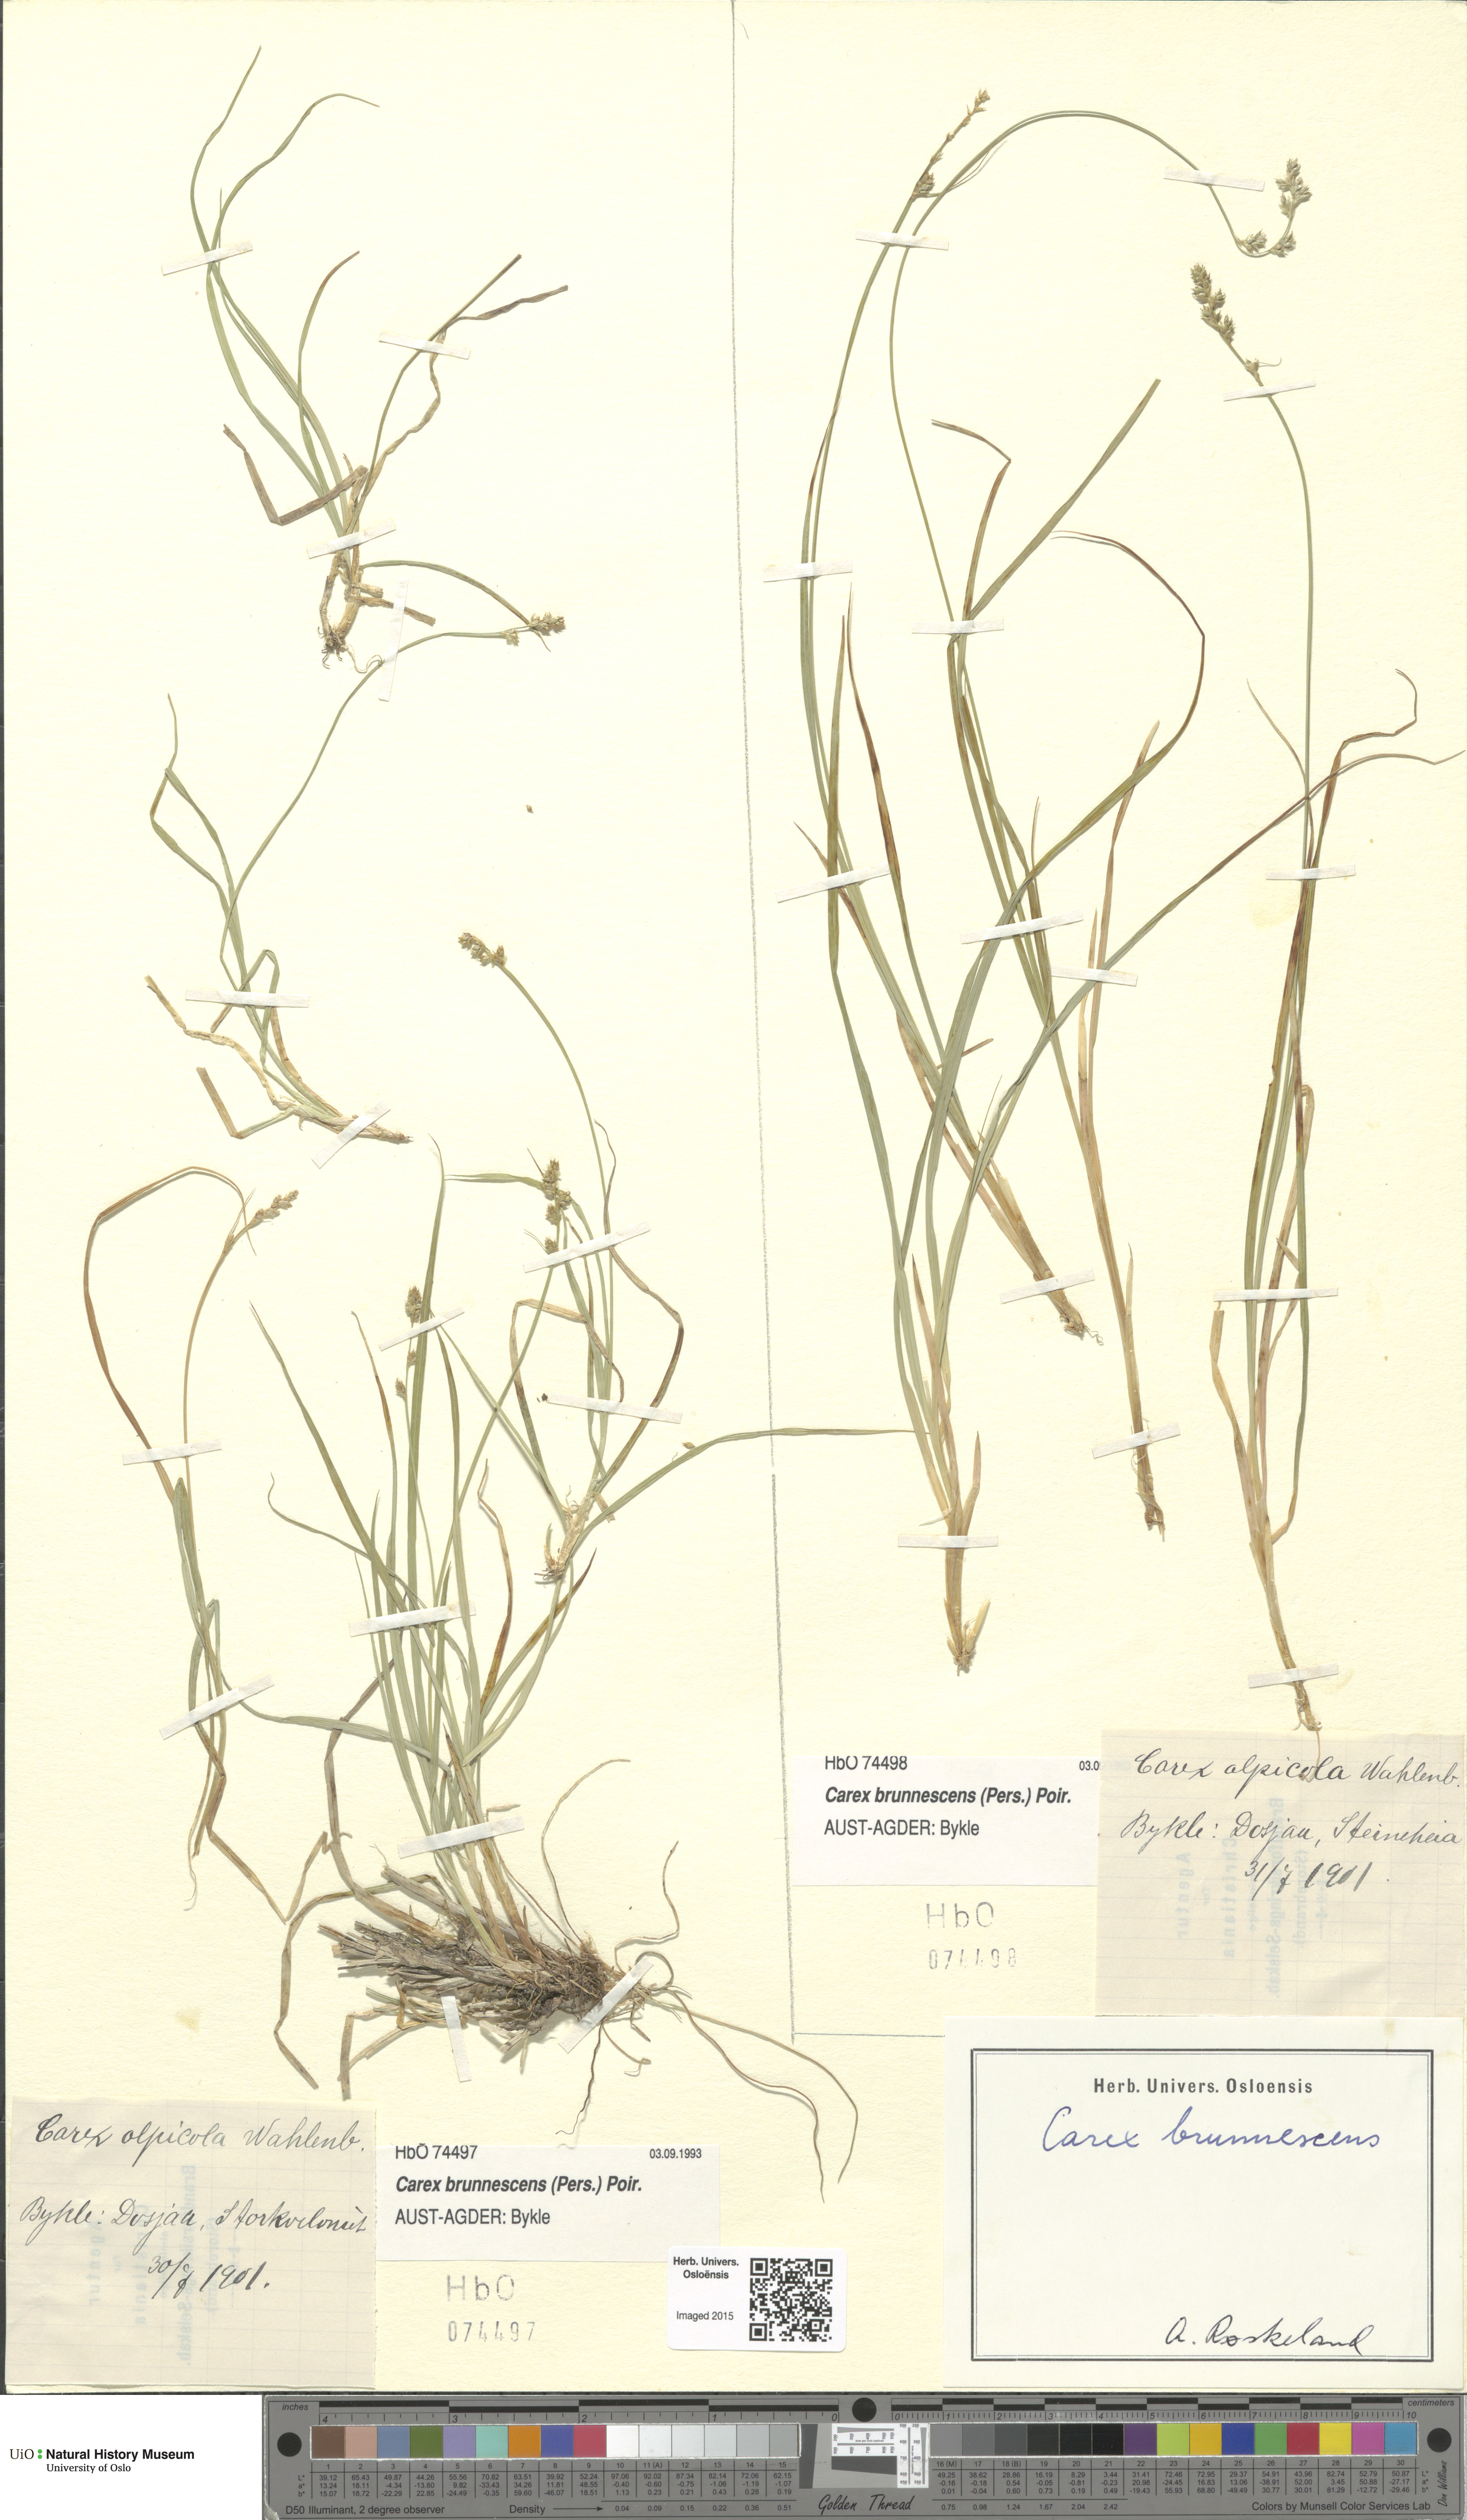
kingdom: Plantae
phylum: Tracheophyta
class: Liliopsida
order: Poales
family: Cyperaceae
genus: Carex
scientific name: Carex brunnescens
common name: Brown sedge
